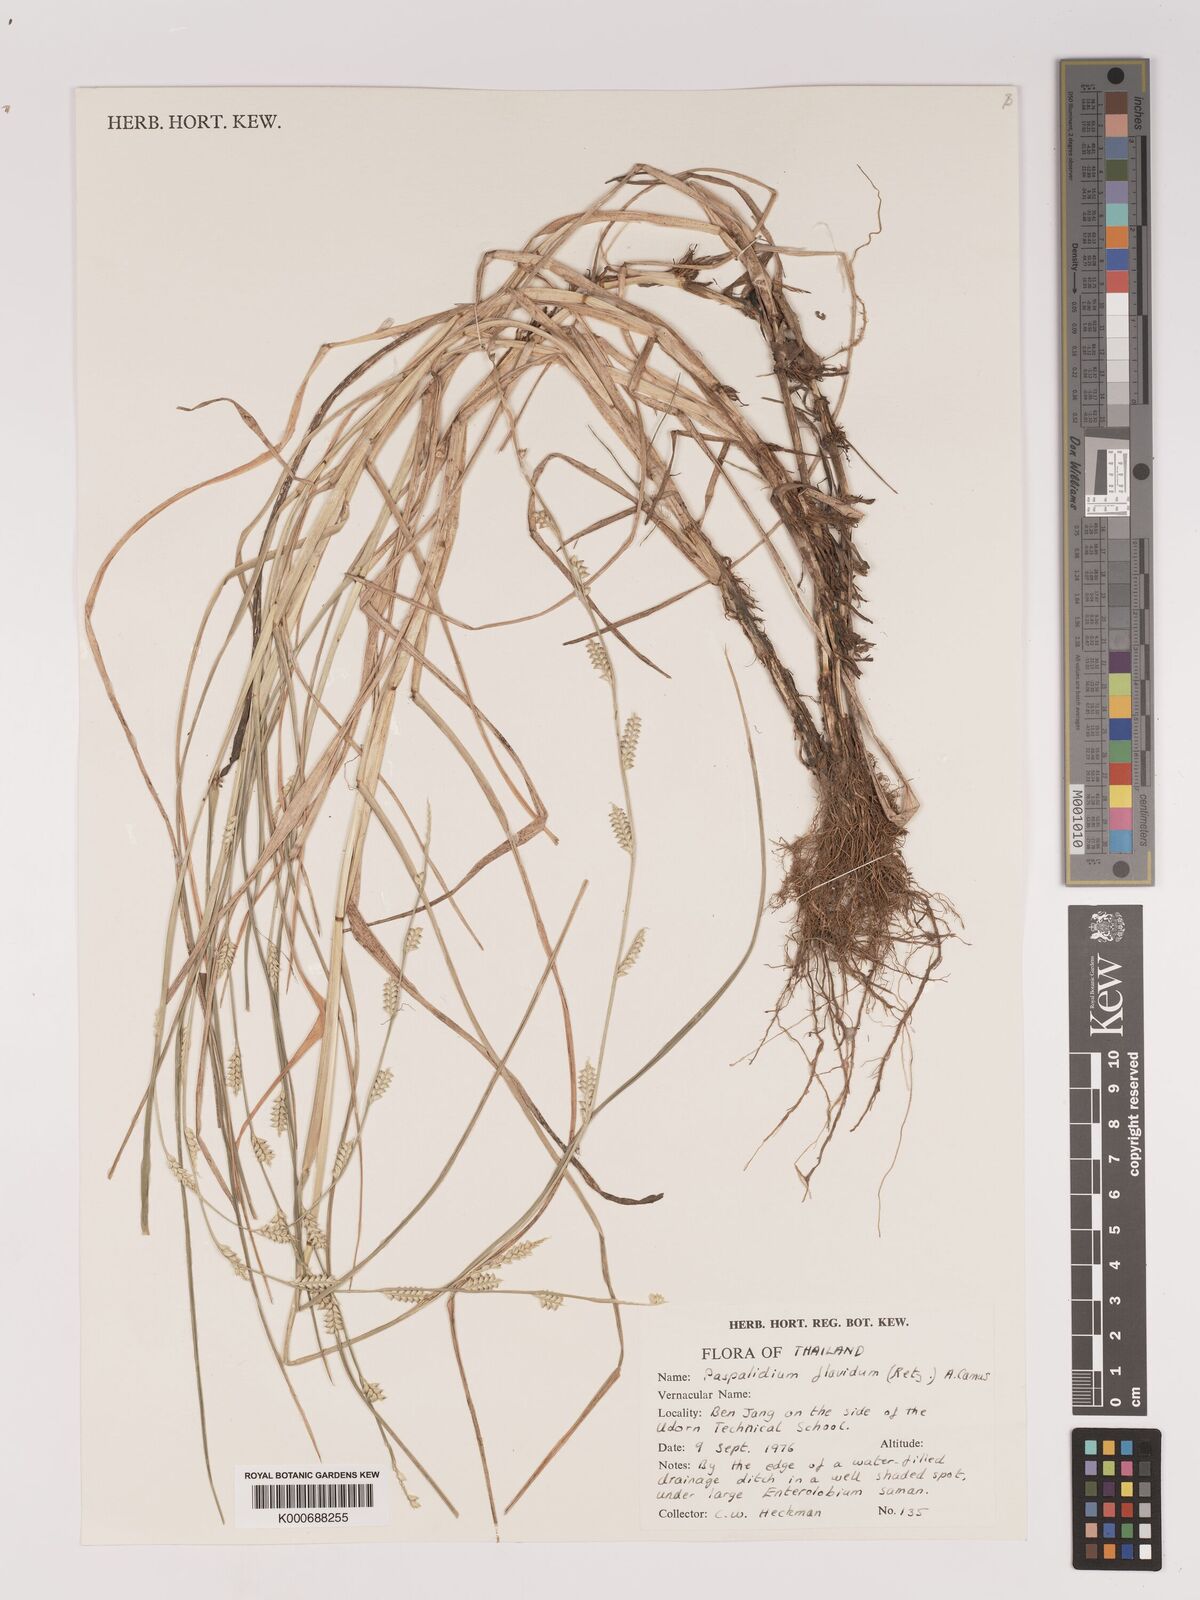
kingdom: Plantae
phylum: Tracheophyta
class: Liliopsida
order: Poales
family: Poaceae
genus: Setaria
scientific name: Setaria flavida
